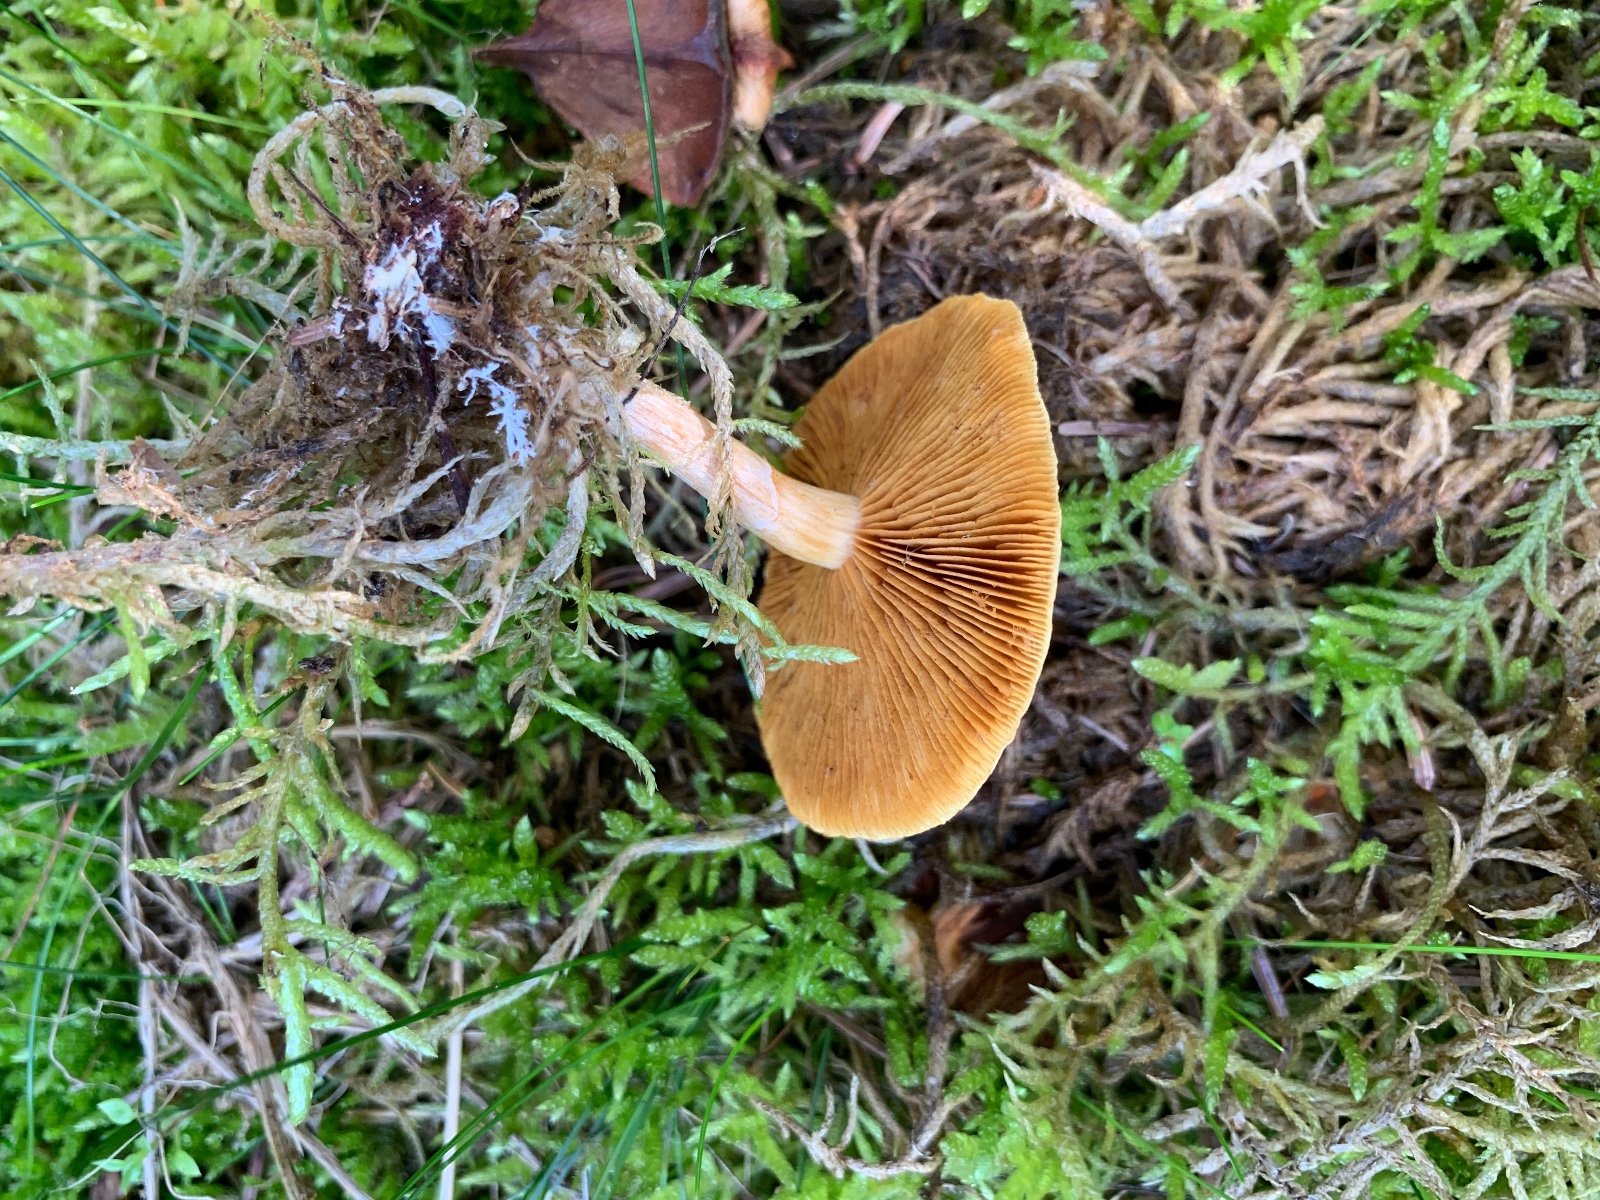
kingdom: Fungi
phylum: Basidiomycota
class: Agaricomycetes
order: Agaricales
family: Hymenogastraceae
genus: Gymnopilus
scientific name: Gymnopilus penetrans
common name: plettet flammehat
